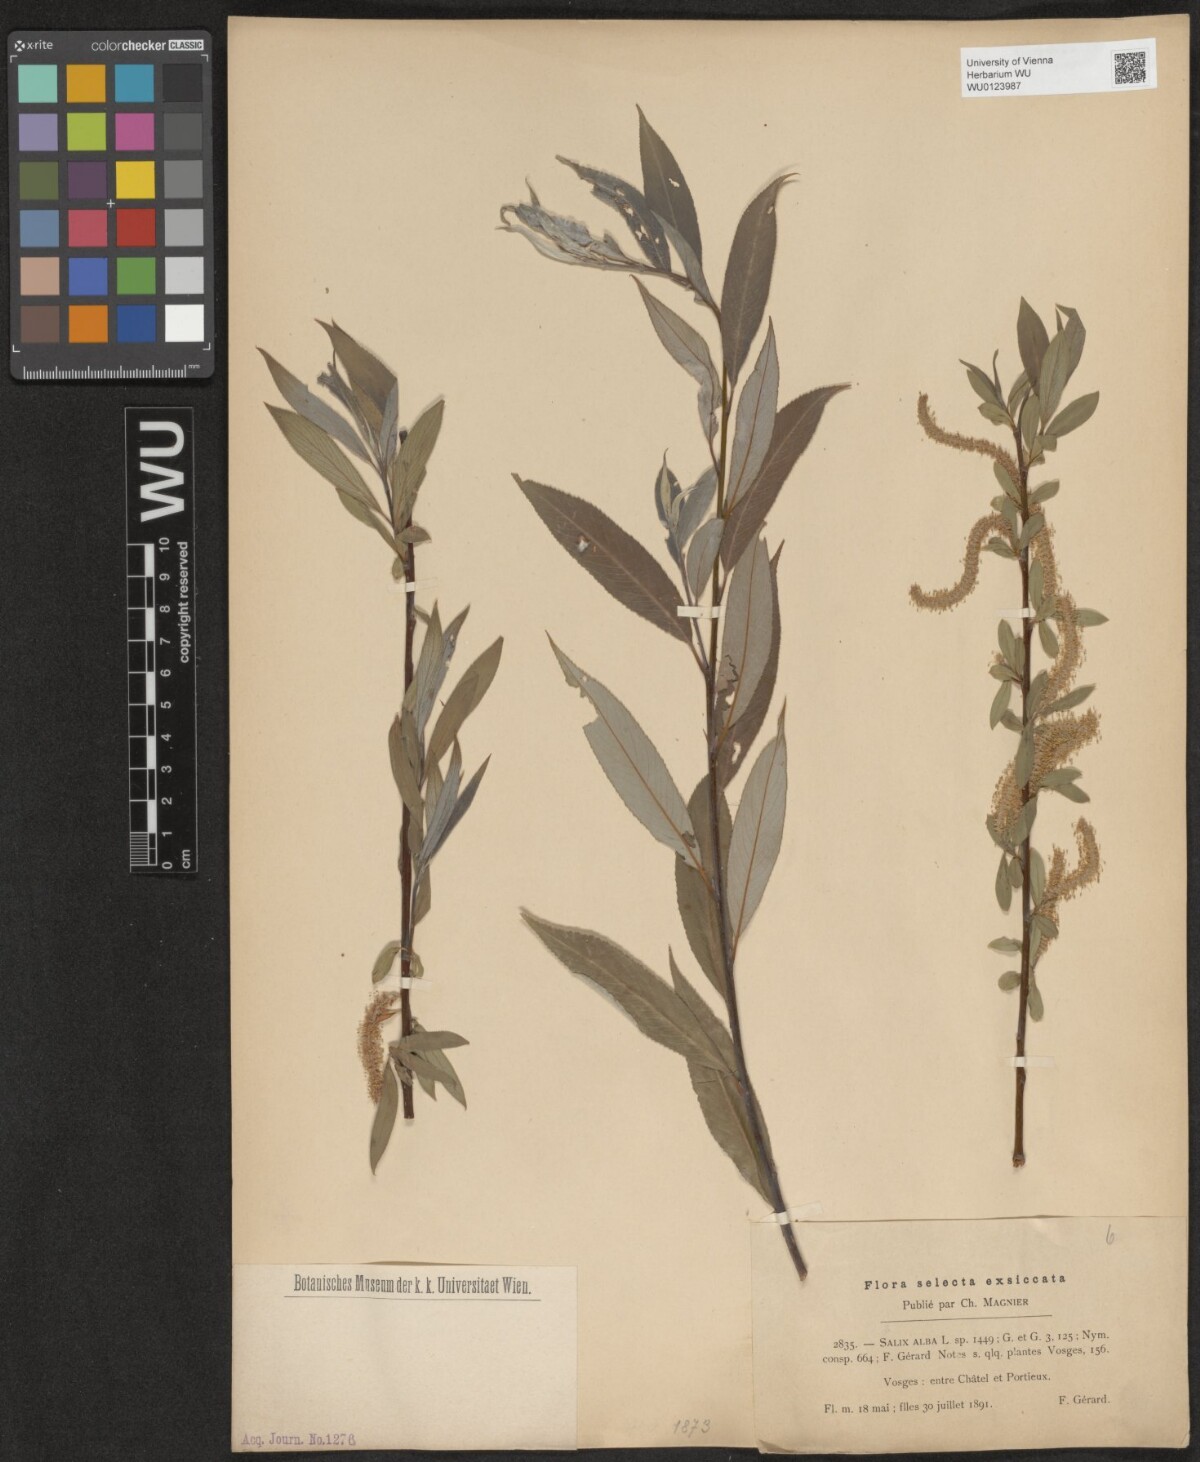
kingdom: Plantae
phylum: Tracheophyta
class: Magnoliopsida
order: Malpighiales
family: Salicaceae
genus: Salix
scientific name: Salix alba
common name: White willow
